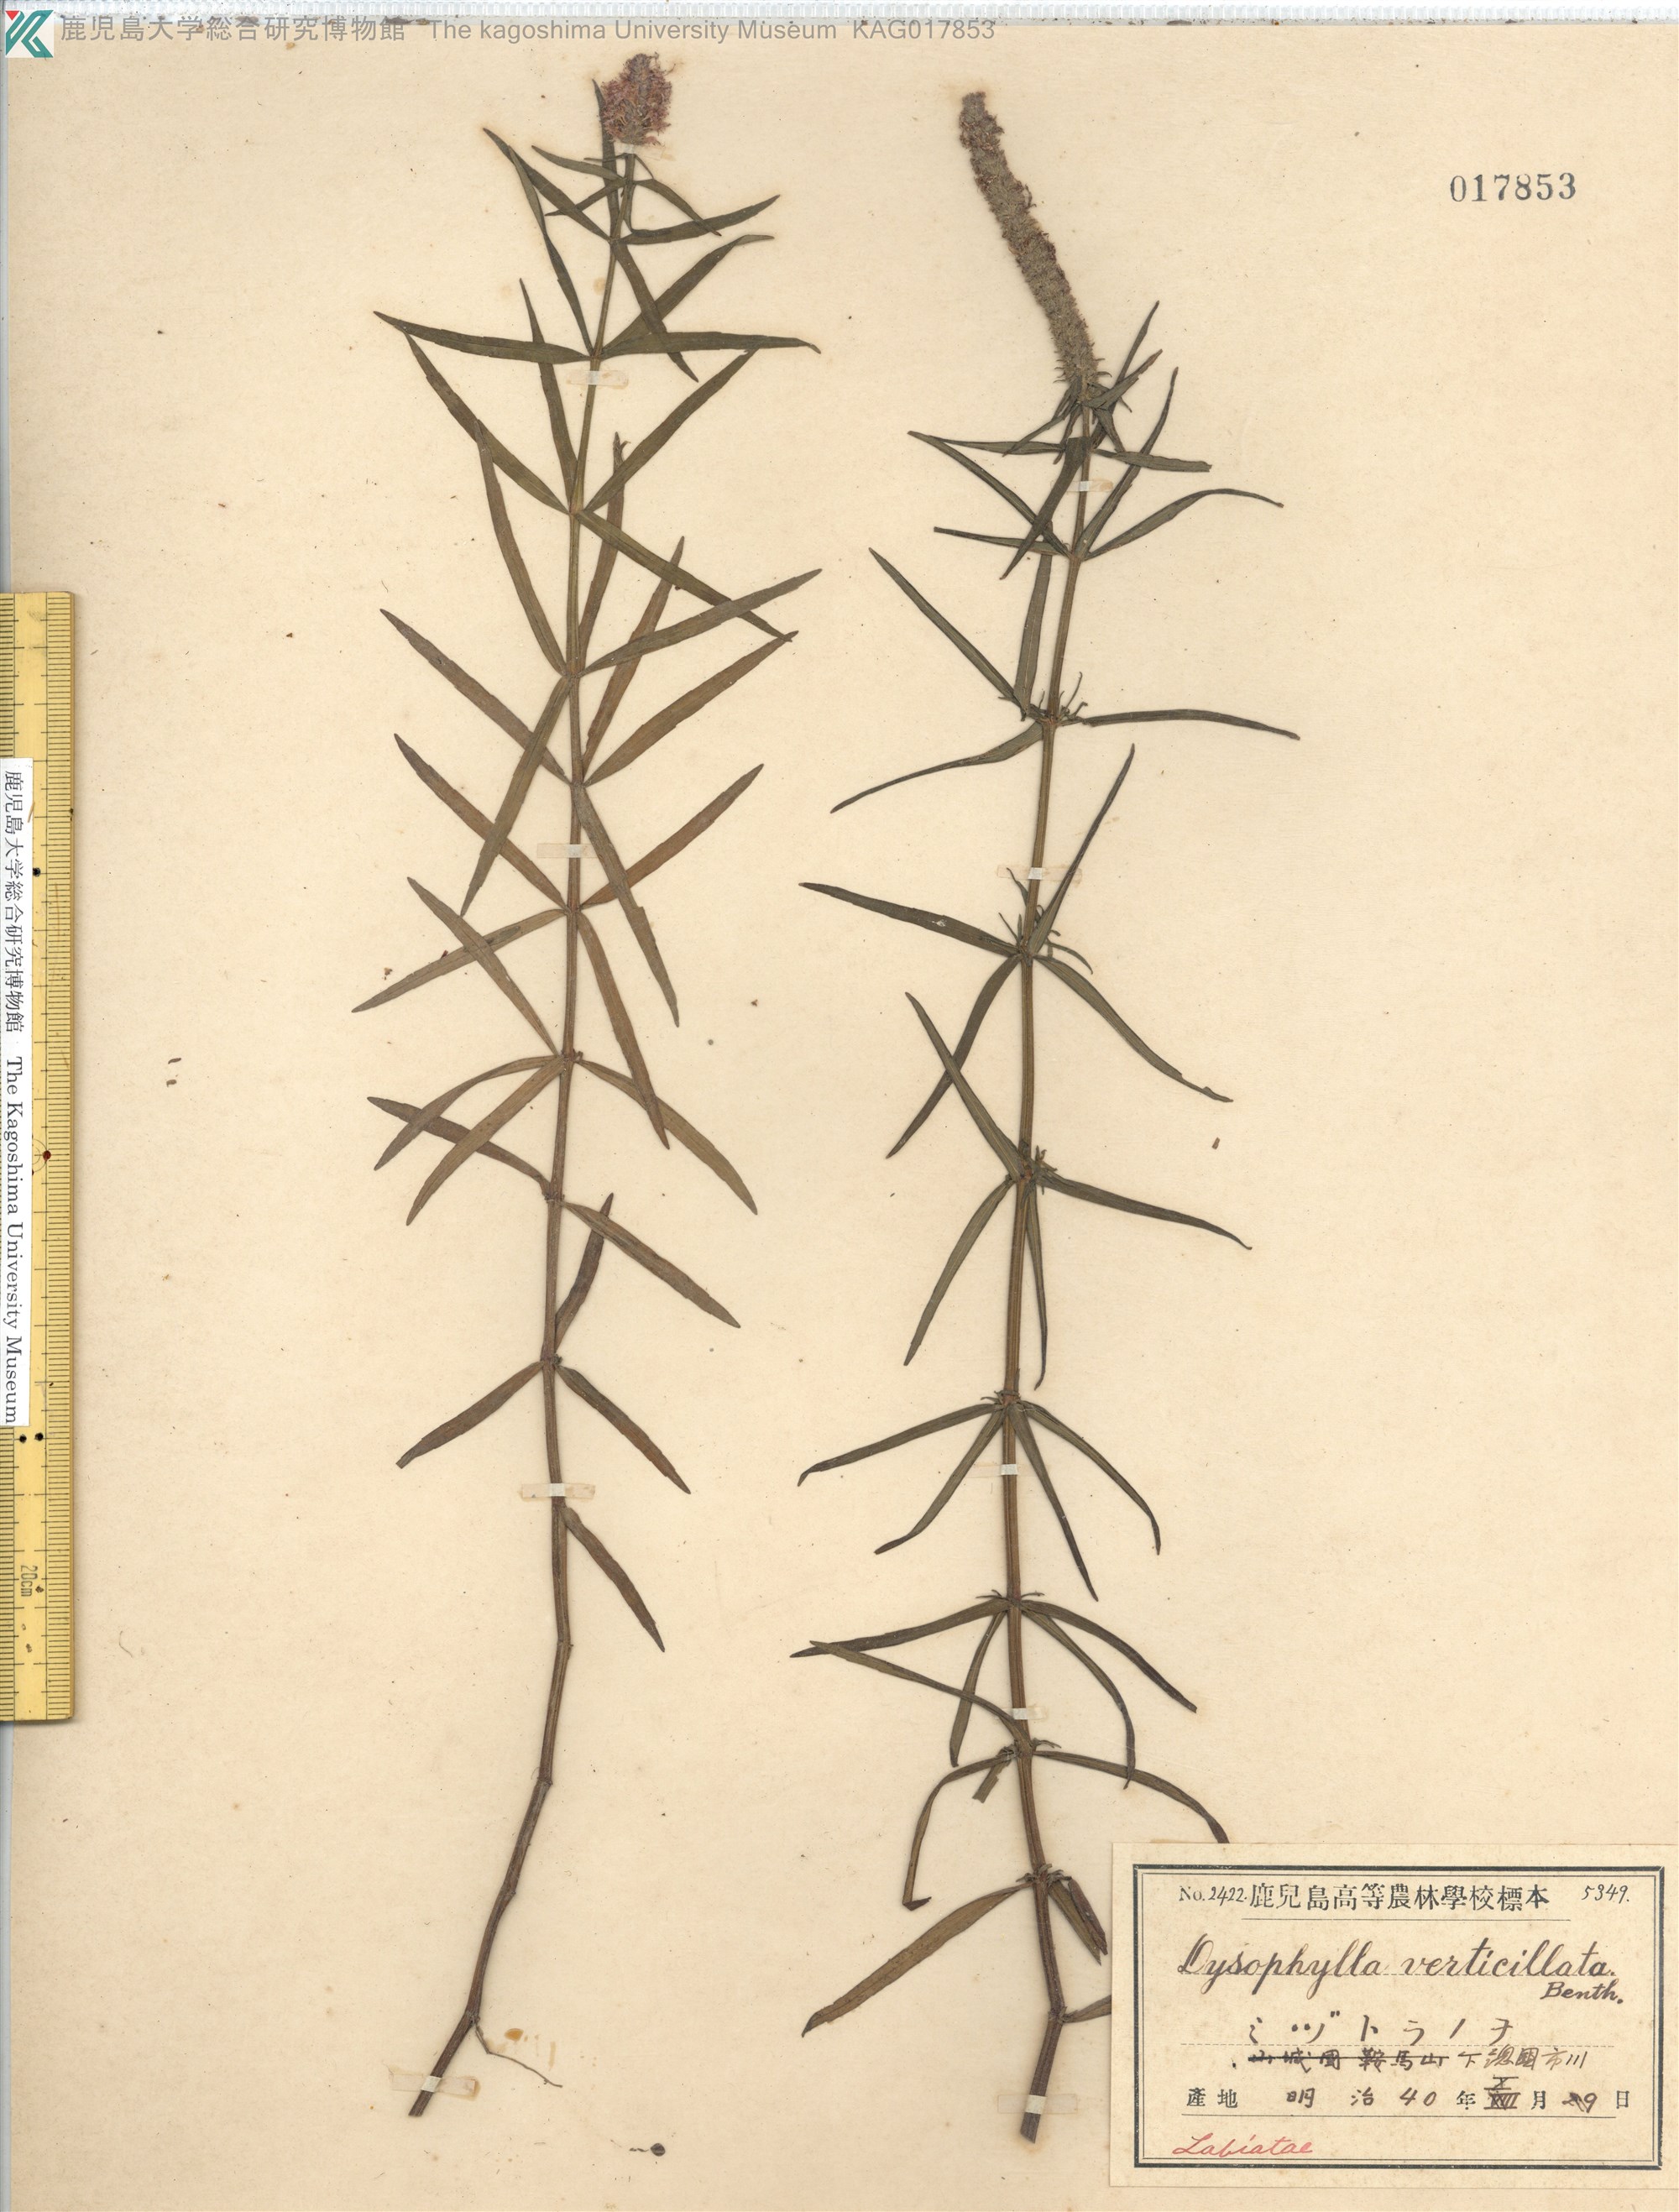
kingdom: Plantae
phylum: Tracheophyta
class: Magnoliopsida
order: Lamiales
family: Lamiaceae
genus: Pogostemon
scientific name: Pogostemon stellatus
